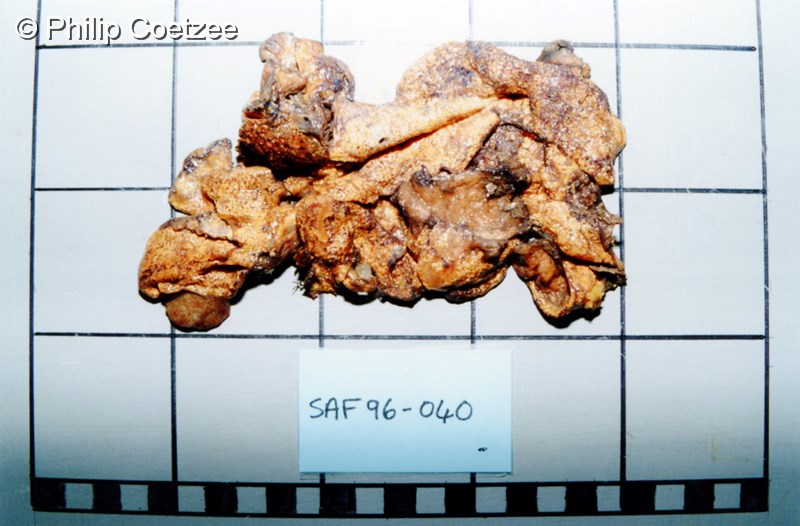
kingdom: Animalia
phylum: Chordata
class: Ascidiacea
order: Aplousobranchia
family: Diazonidae
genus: Diazona
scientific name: Diazona
